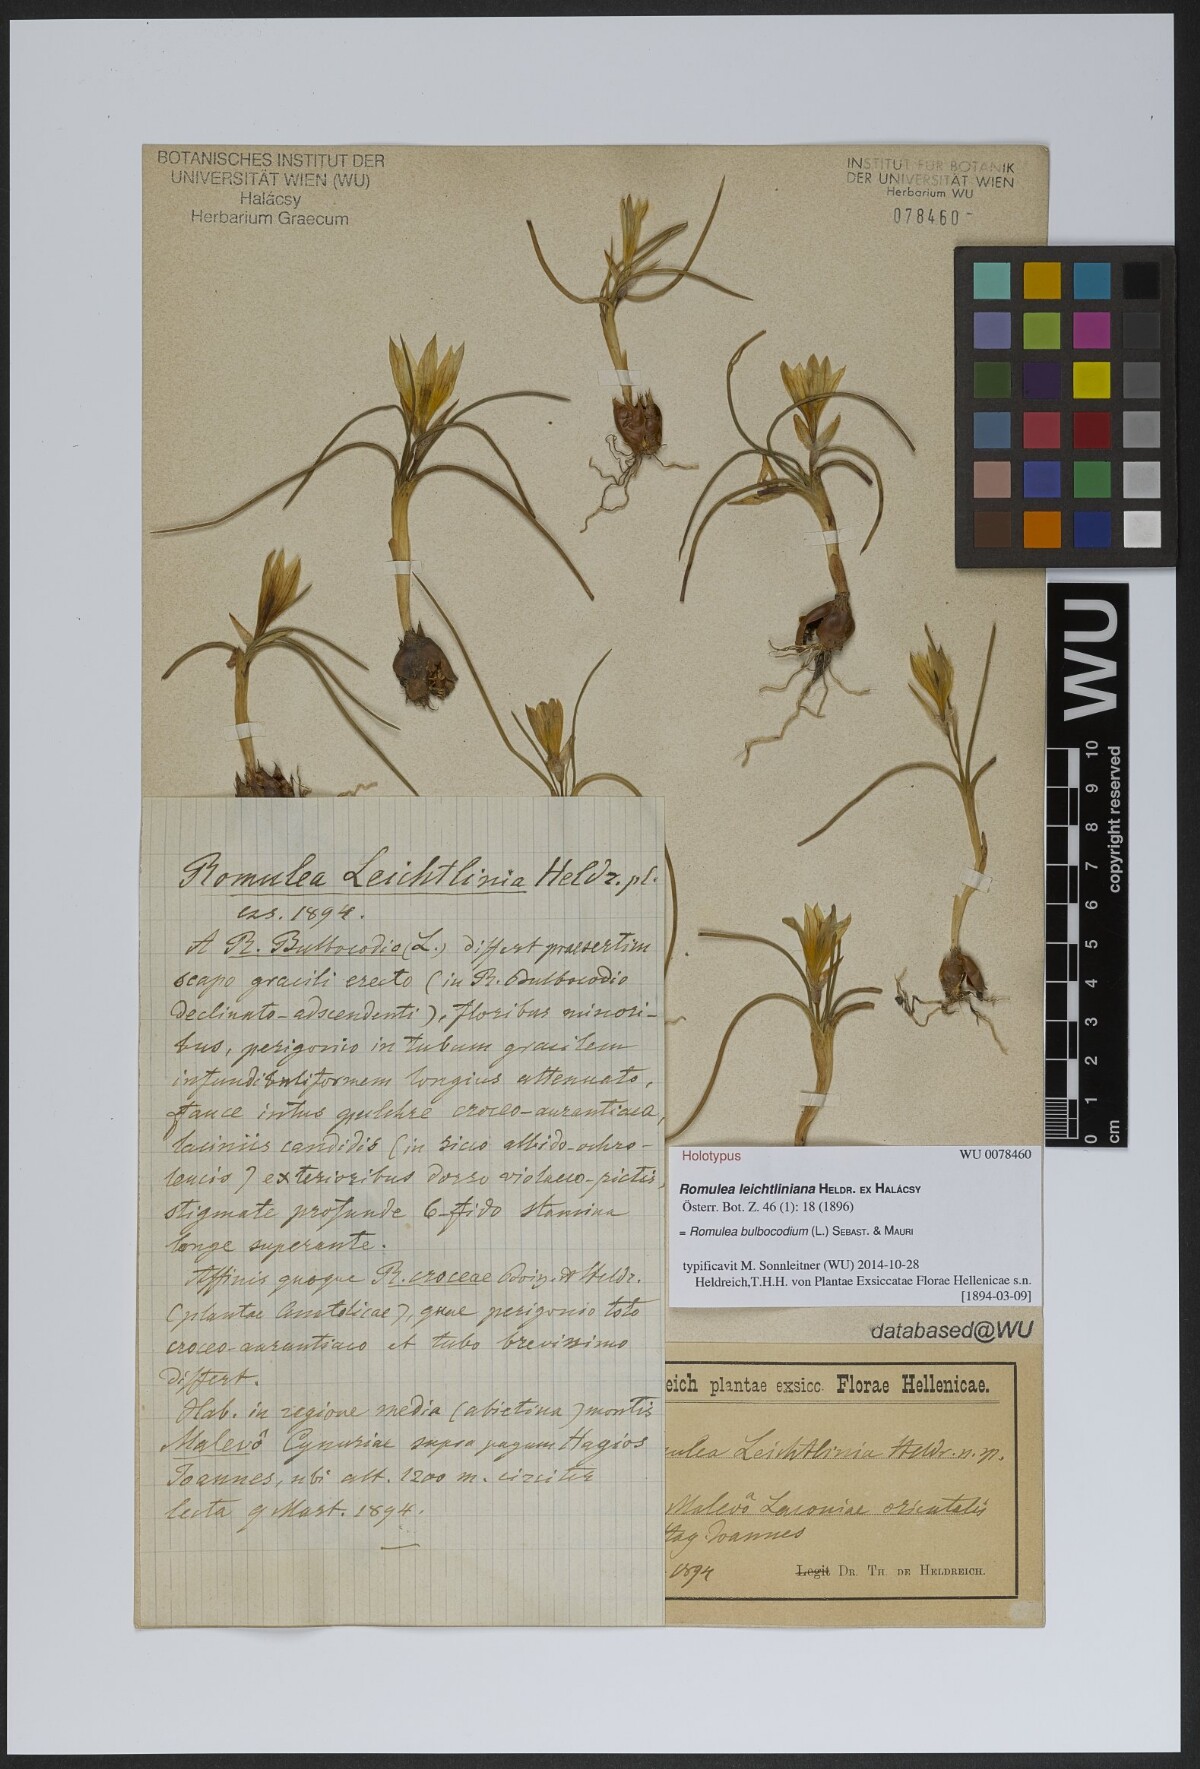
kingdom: Plantae
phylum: Tracheophyta
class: Liliopsida
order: Asparagales
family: Iridaceae
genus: Romulea
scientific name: Romulea bulbocodium
